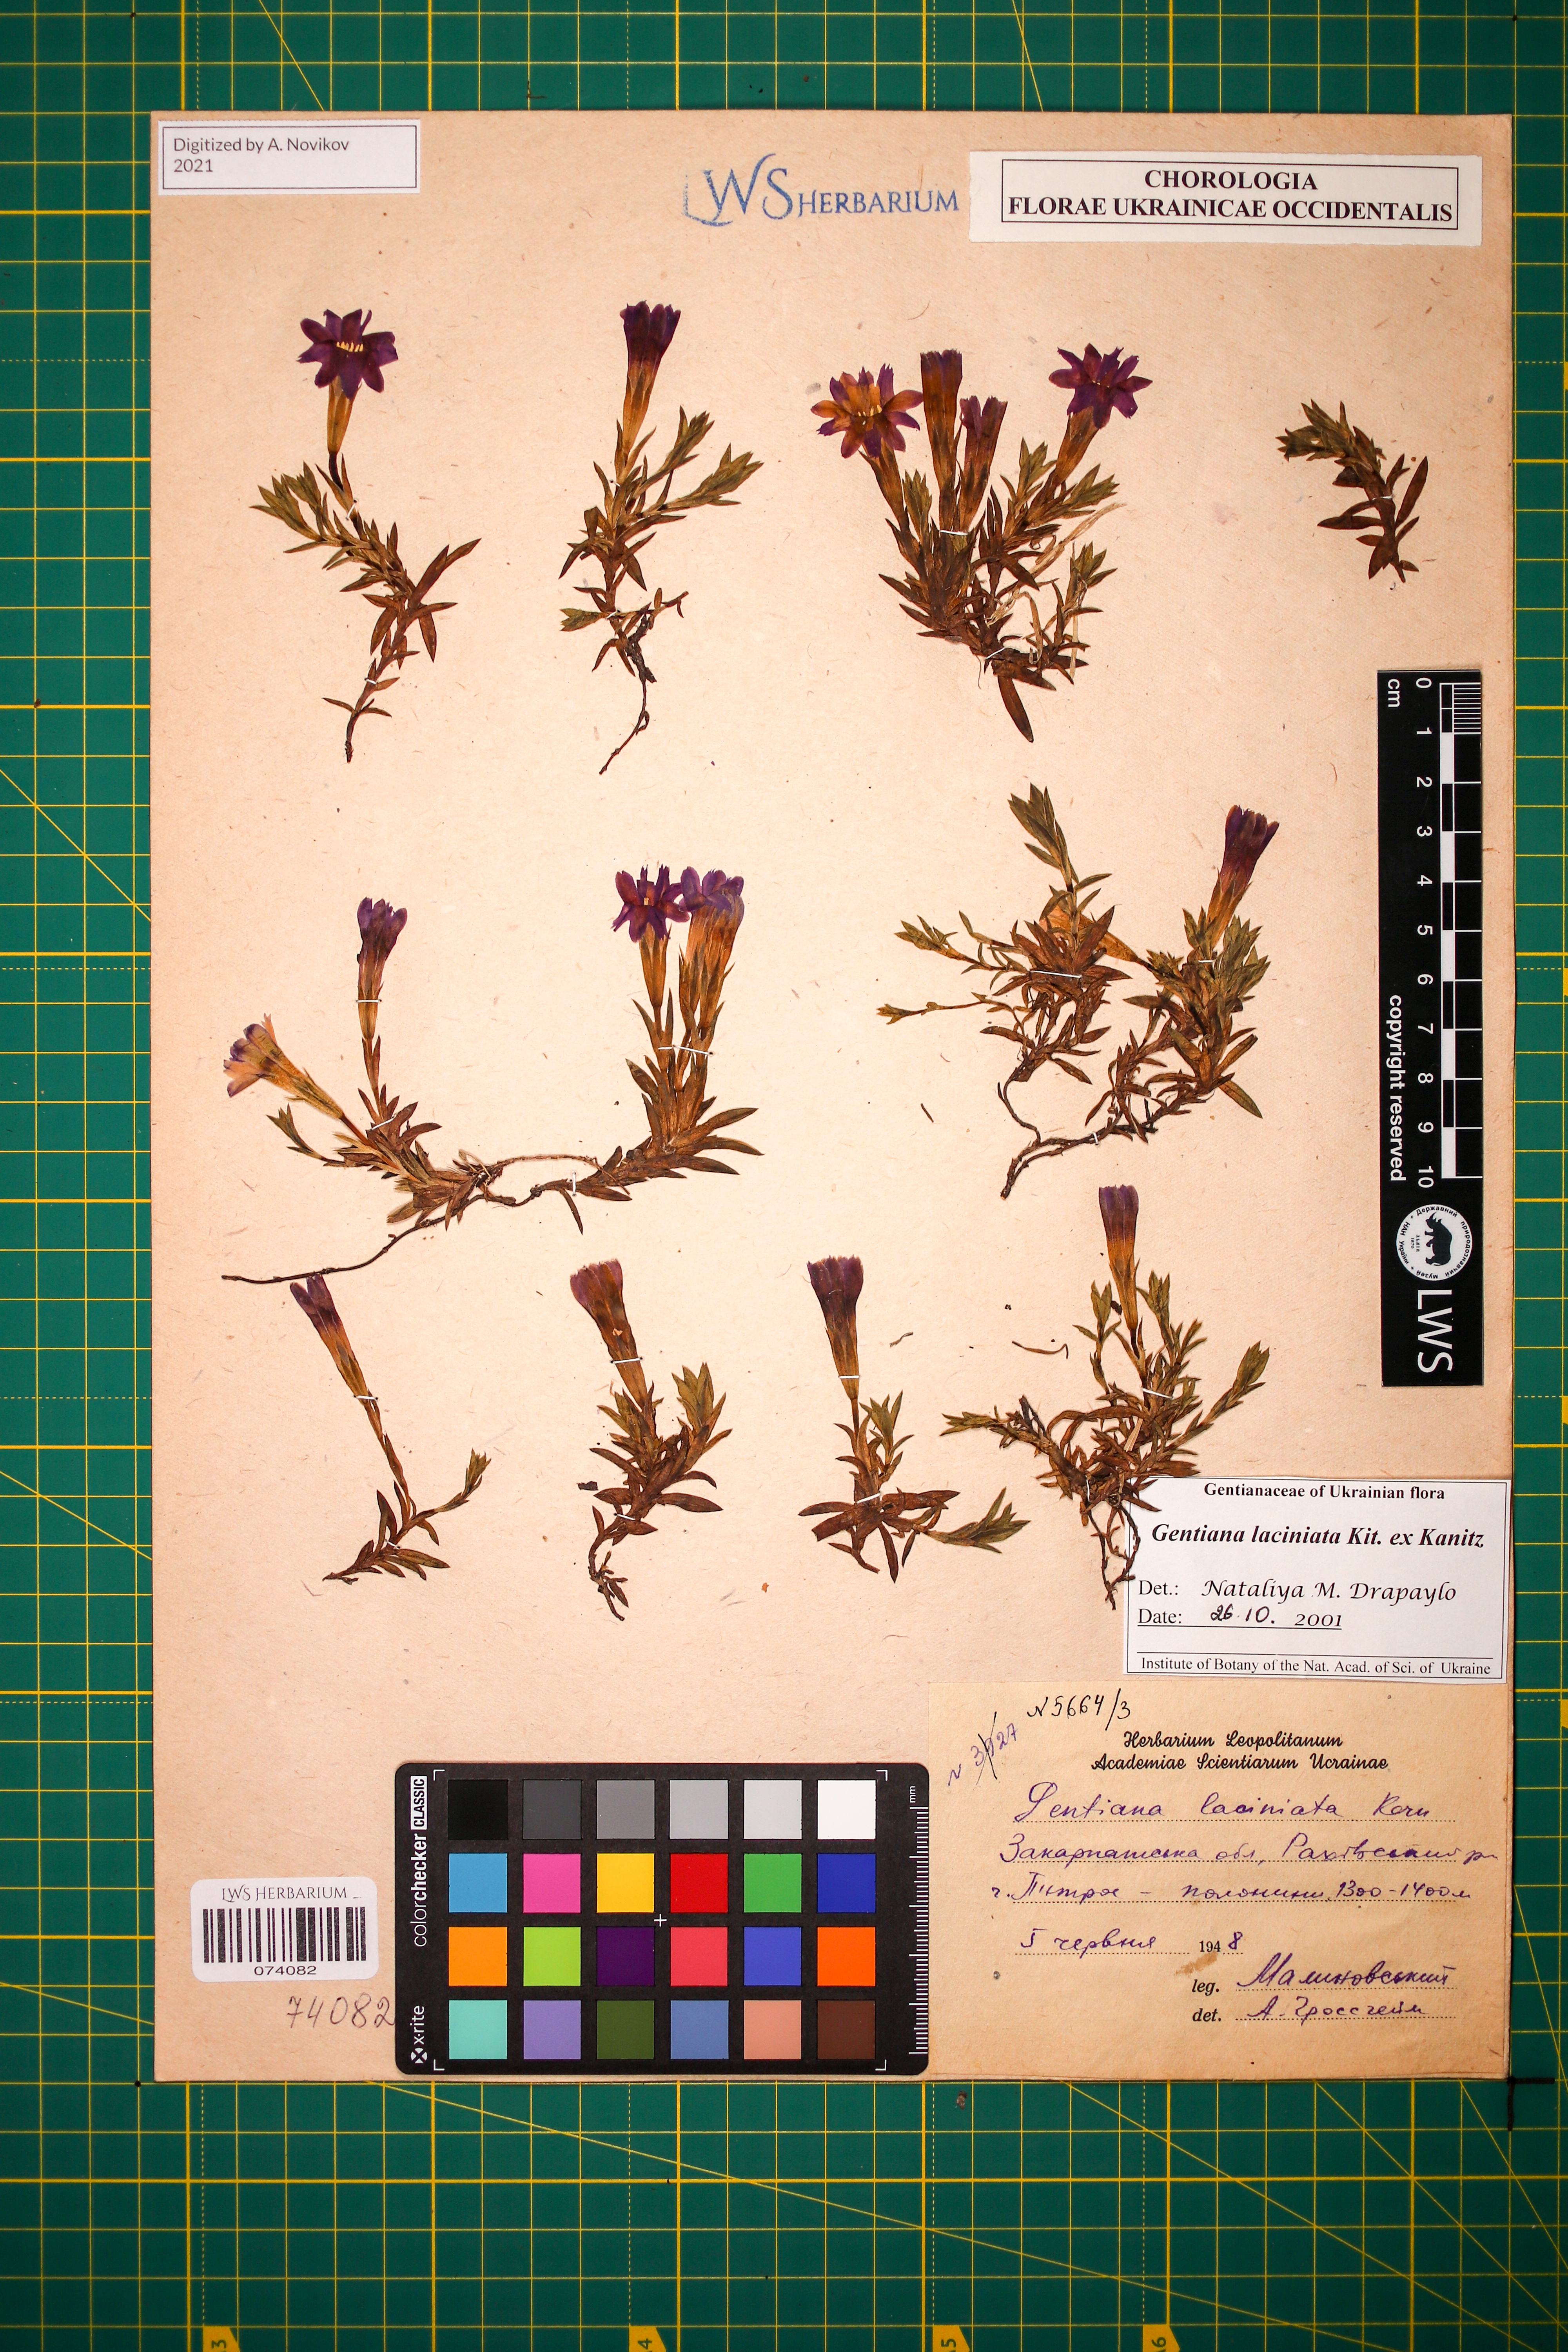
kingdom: Plantae
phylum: Tracheophyta
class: Magnoliopsida
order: Gentianales
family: Gentianaceae
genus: Gentiana
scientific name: Gentiana laciniata
